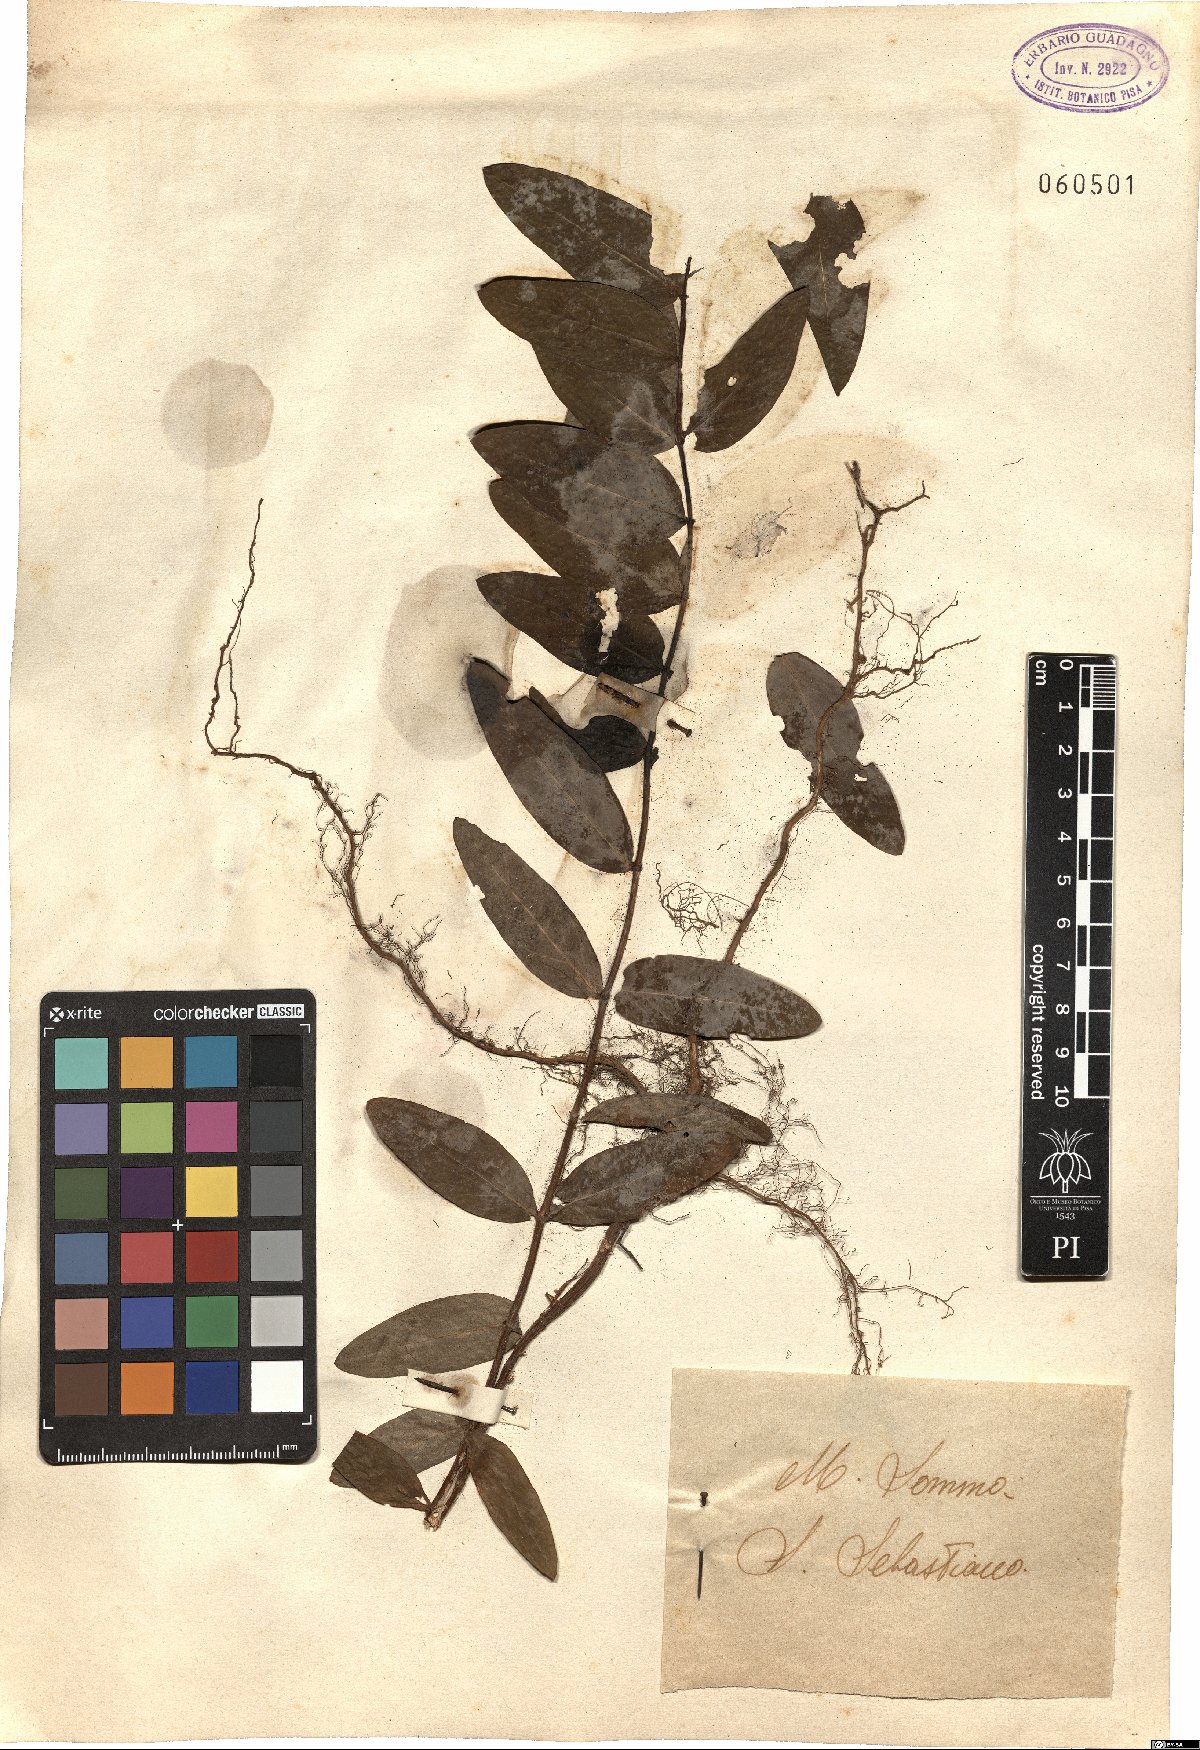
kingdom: Plantae
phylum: Tracheophyta
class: Magnoliopsida
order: Malpighiales
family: Hypericaceae
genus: Hypericum
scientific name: Hypericum
